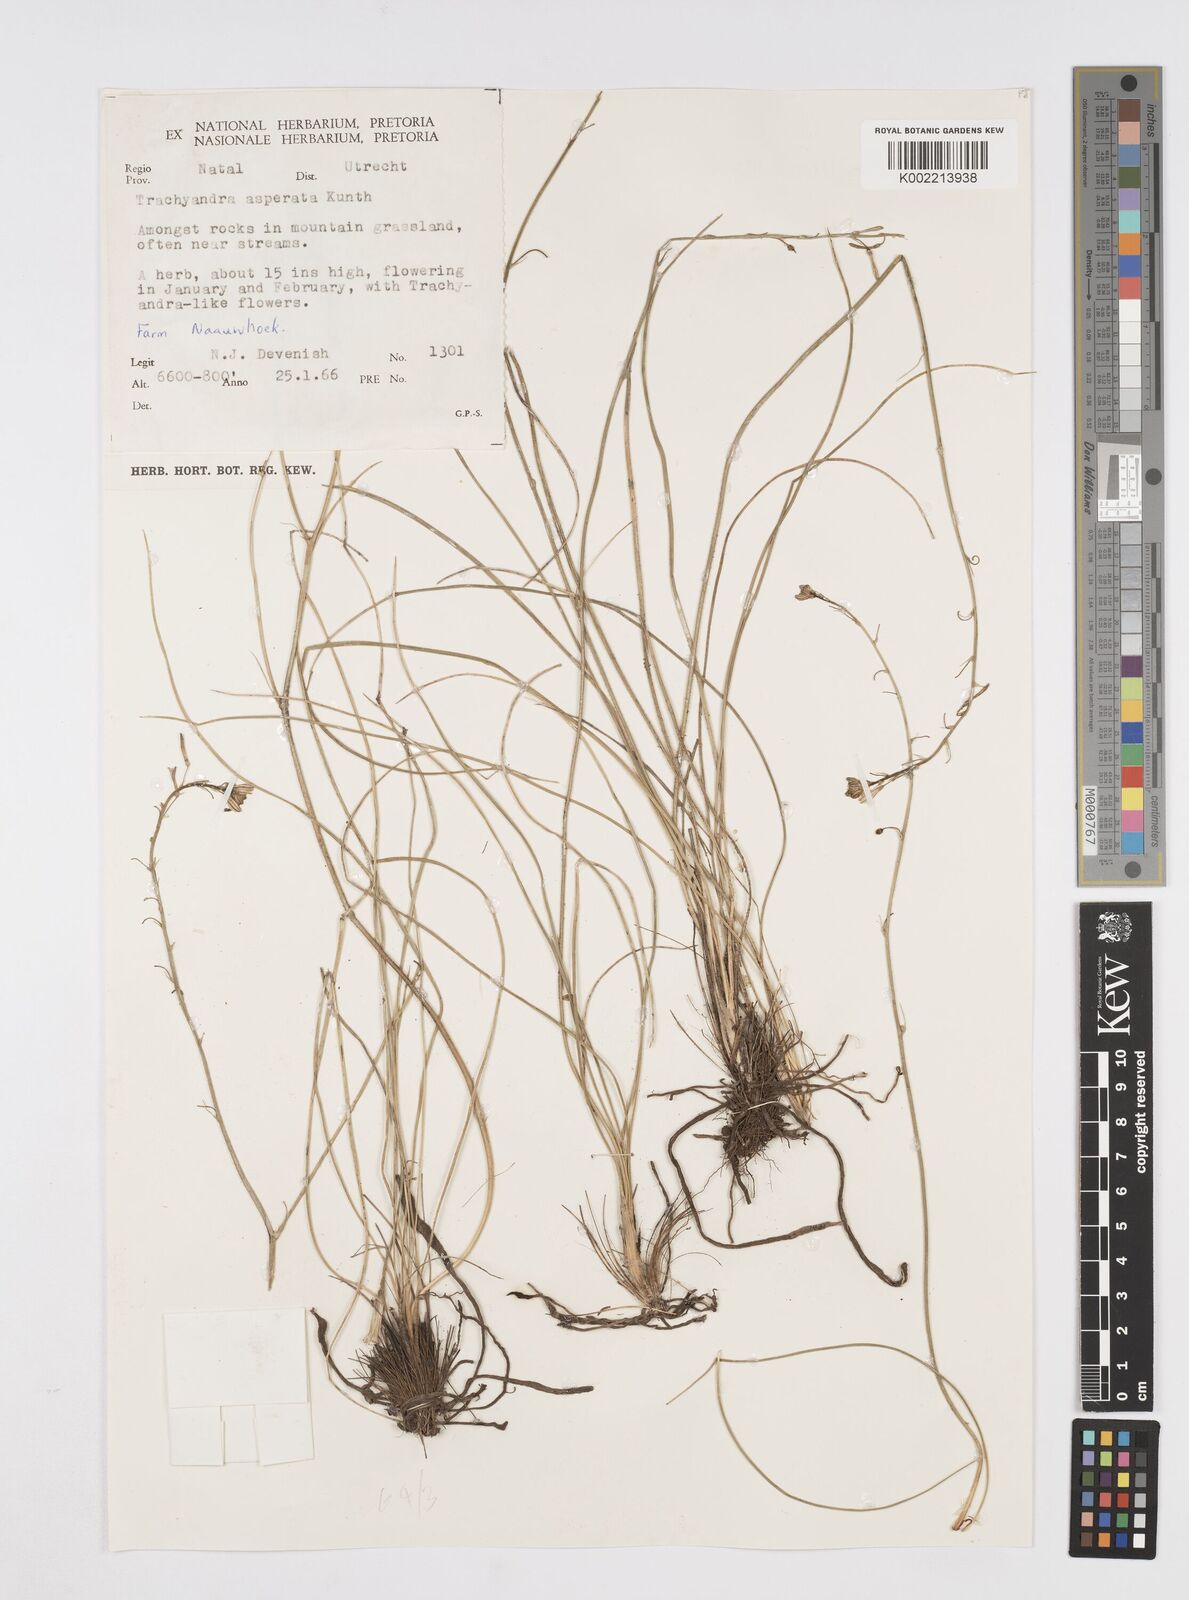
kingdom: Plantae
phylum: Tracheophyta
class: Liliopsida
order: Asparagales
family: Asphodelaceae
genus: Trachyandra
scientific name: Trachyandra asperata
